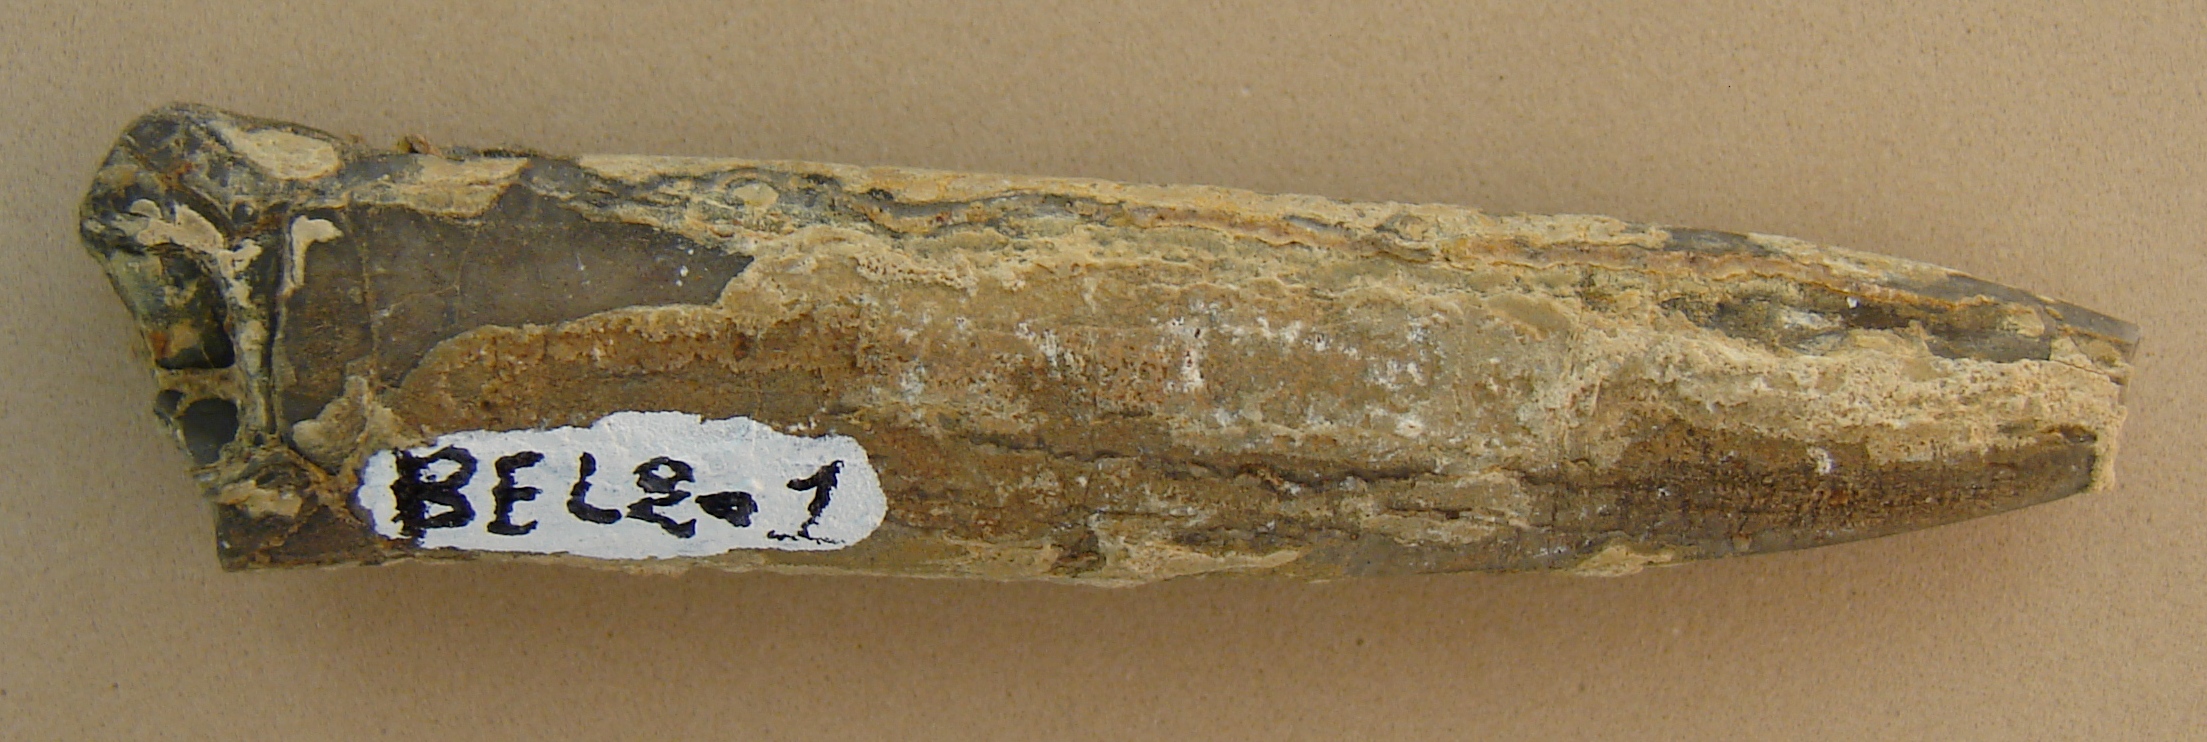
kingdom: Animalia
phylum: Mollusca
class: Cephalopoda
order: Belemnitida
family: Holcobelidae
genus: Calabribelus
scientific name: Calabribelus
